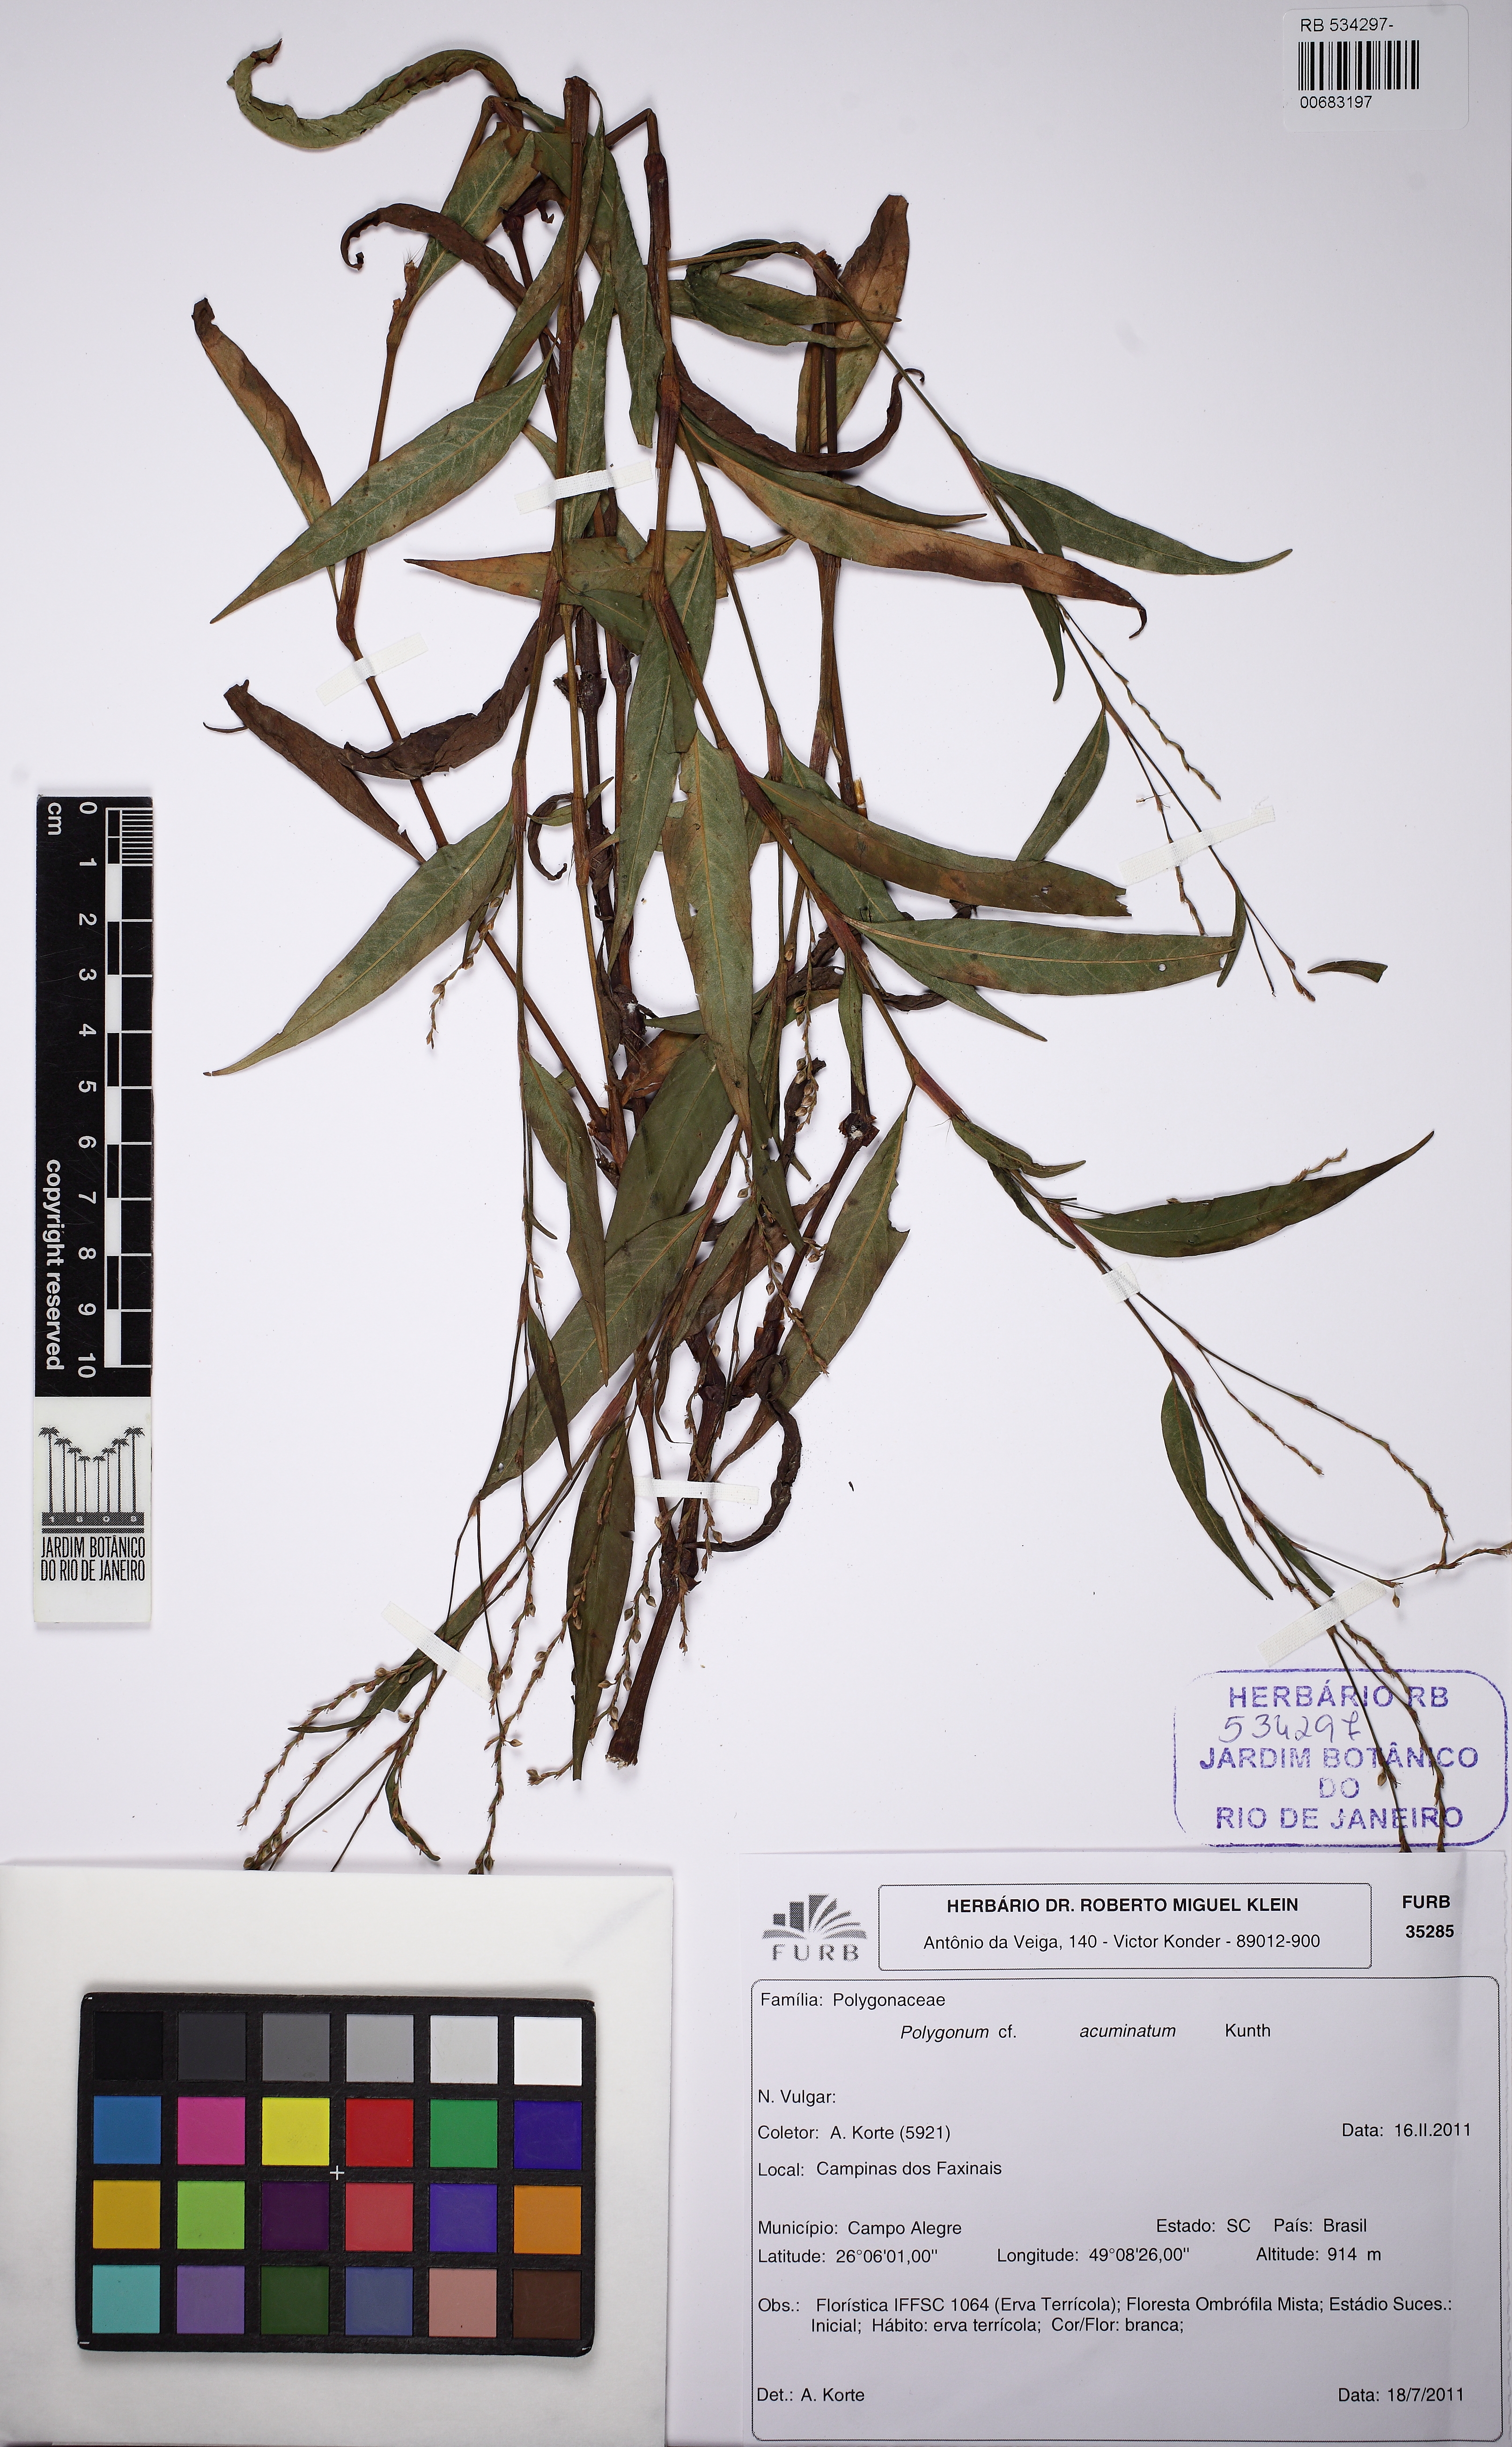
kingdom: Plantae
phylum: Tracheophyta
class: Magnoliopsida
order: Caryophyllales
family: Polygonaceae
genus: Persicaria
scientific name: Persicaria acuminata
